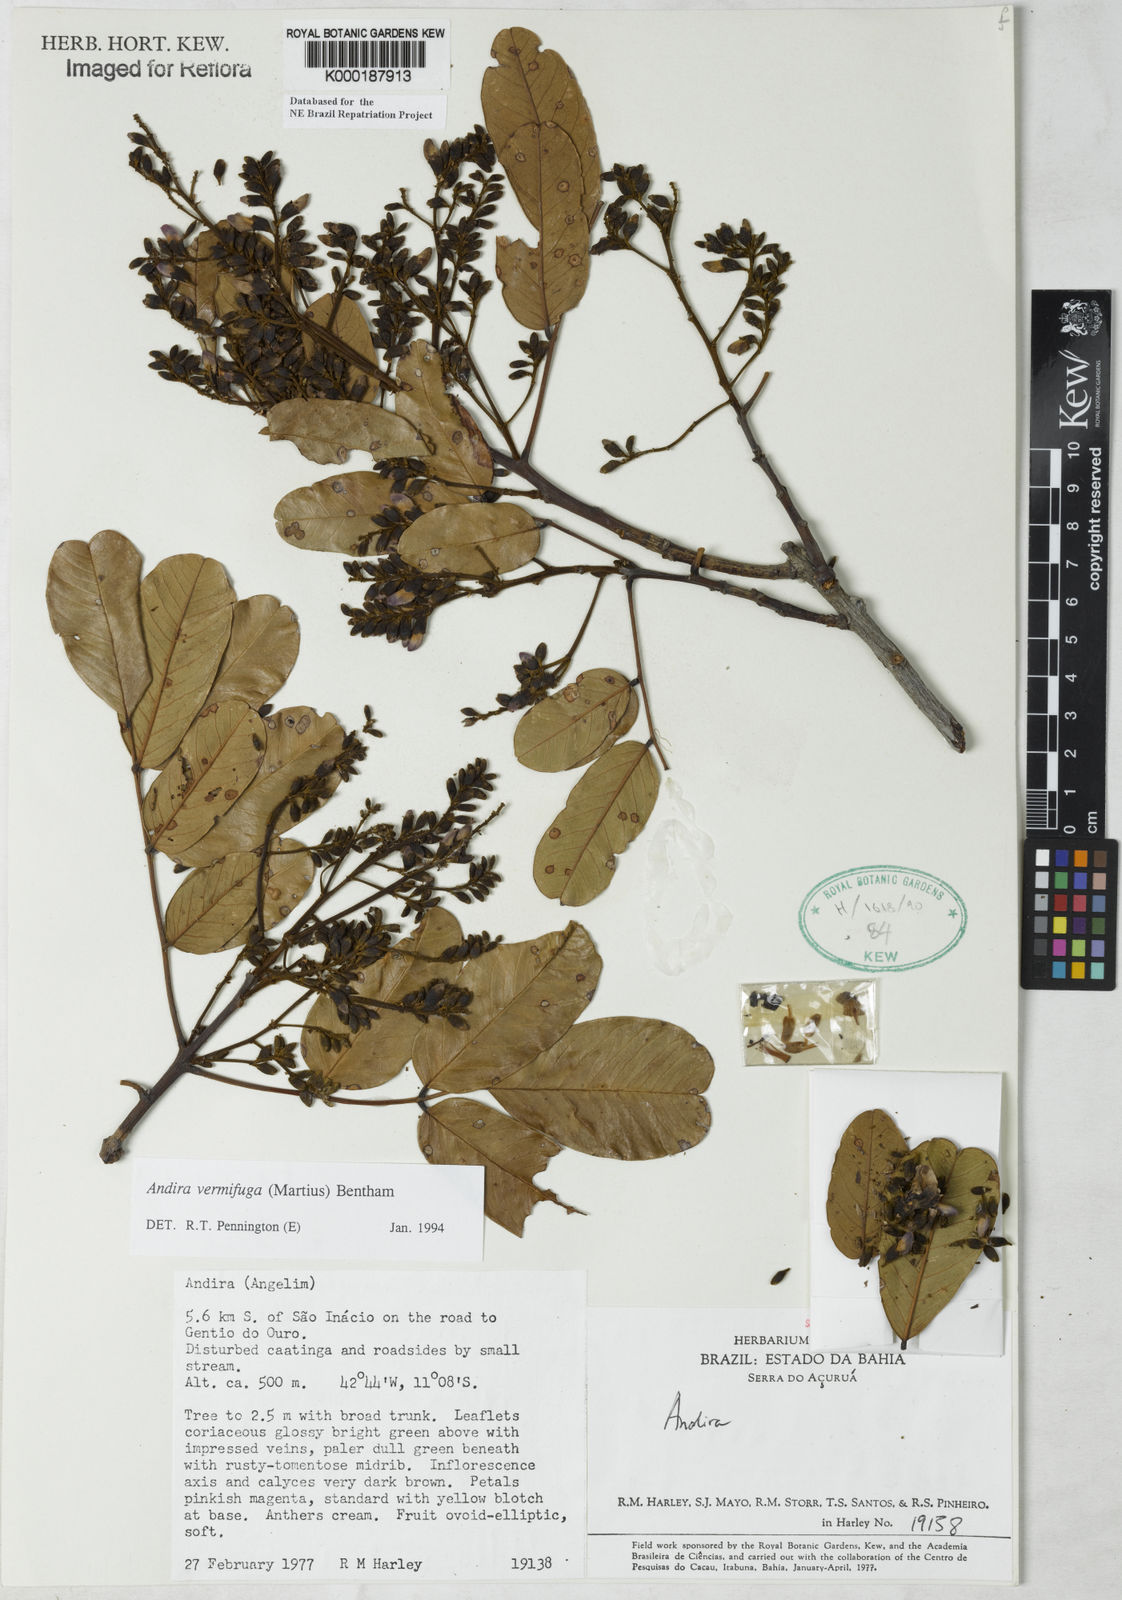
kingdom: Plantae
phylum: Tracheophyta
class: Magnoliopsida
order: Fabales
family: Fabaceae
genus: Andira
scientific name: Andira vermifuga
